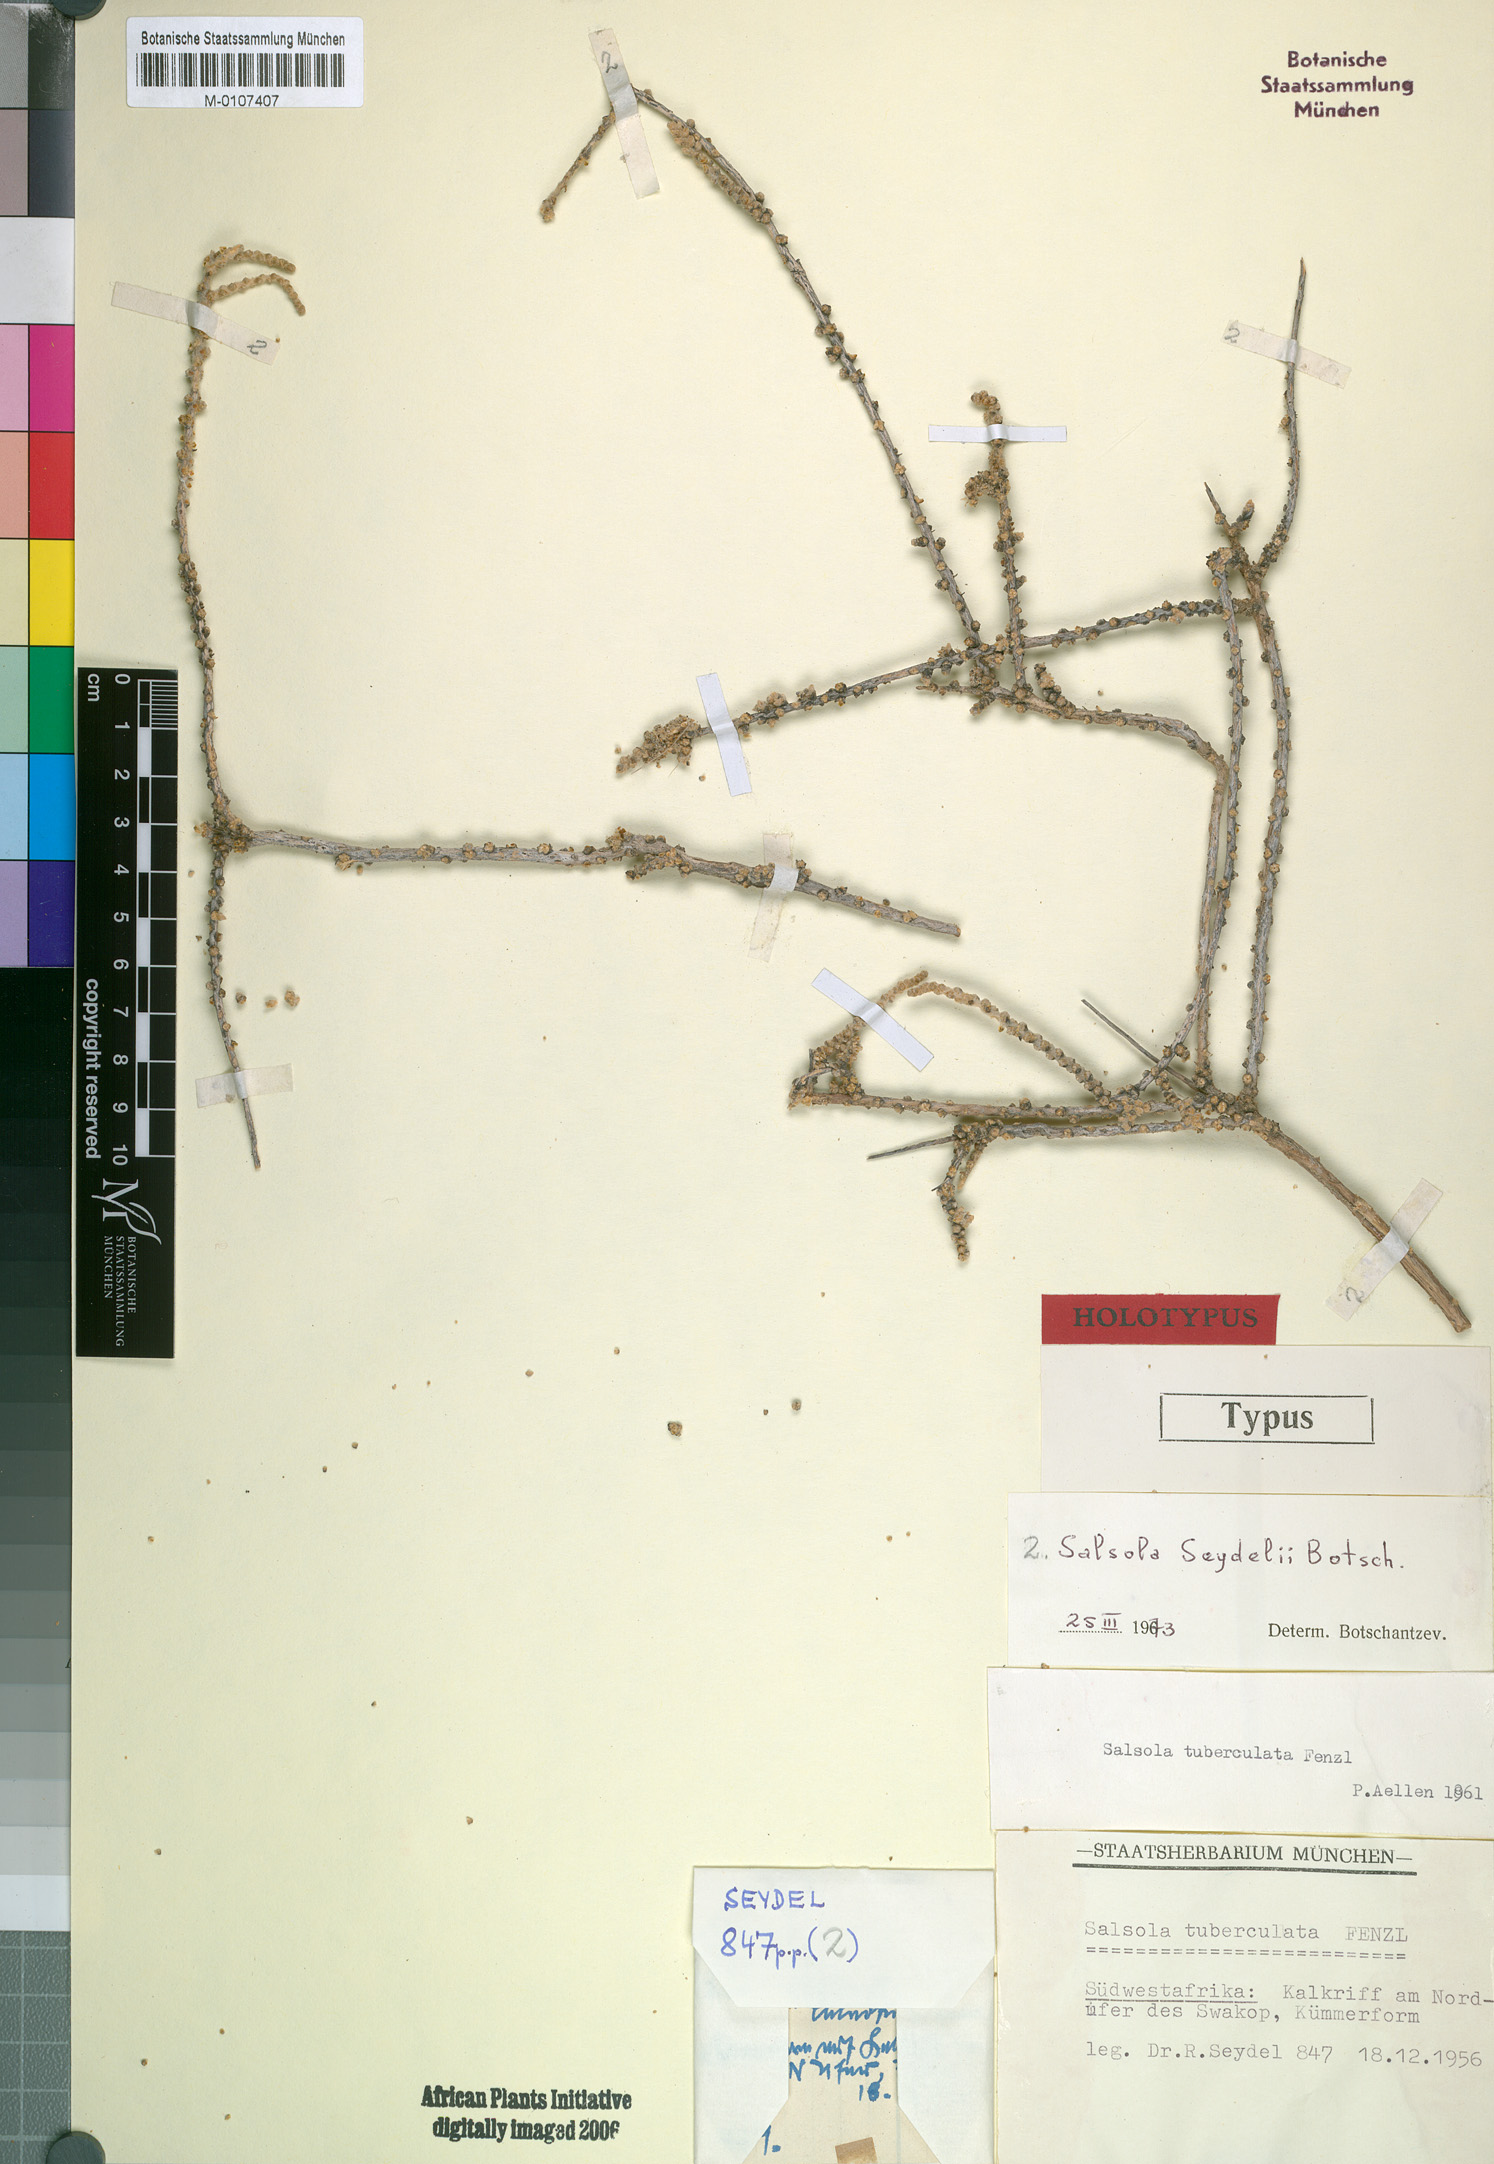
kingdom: Plantae
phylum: Tracheophyta
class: Magnoliopsida
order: Caryophyllales
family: Amaranthaceae
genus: Caroxylon
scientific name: Caroxylon seydelii
